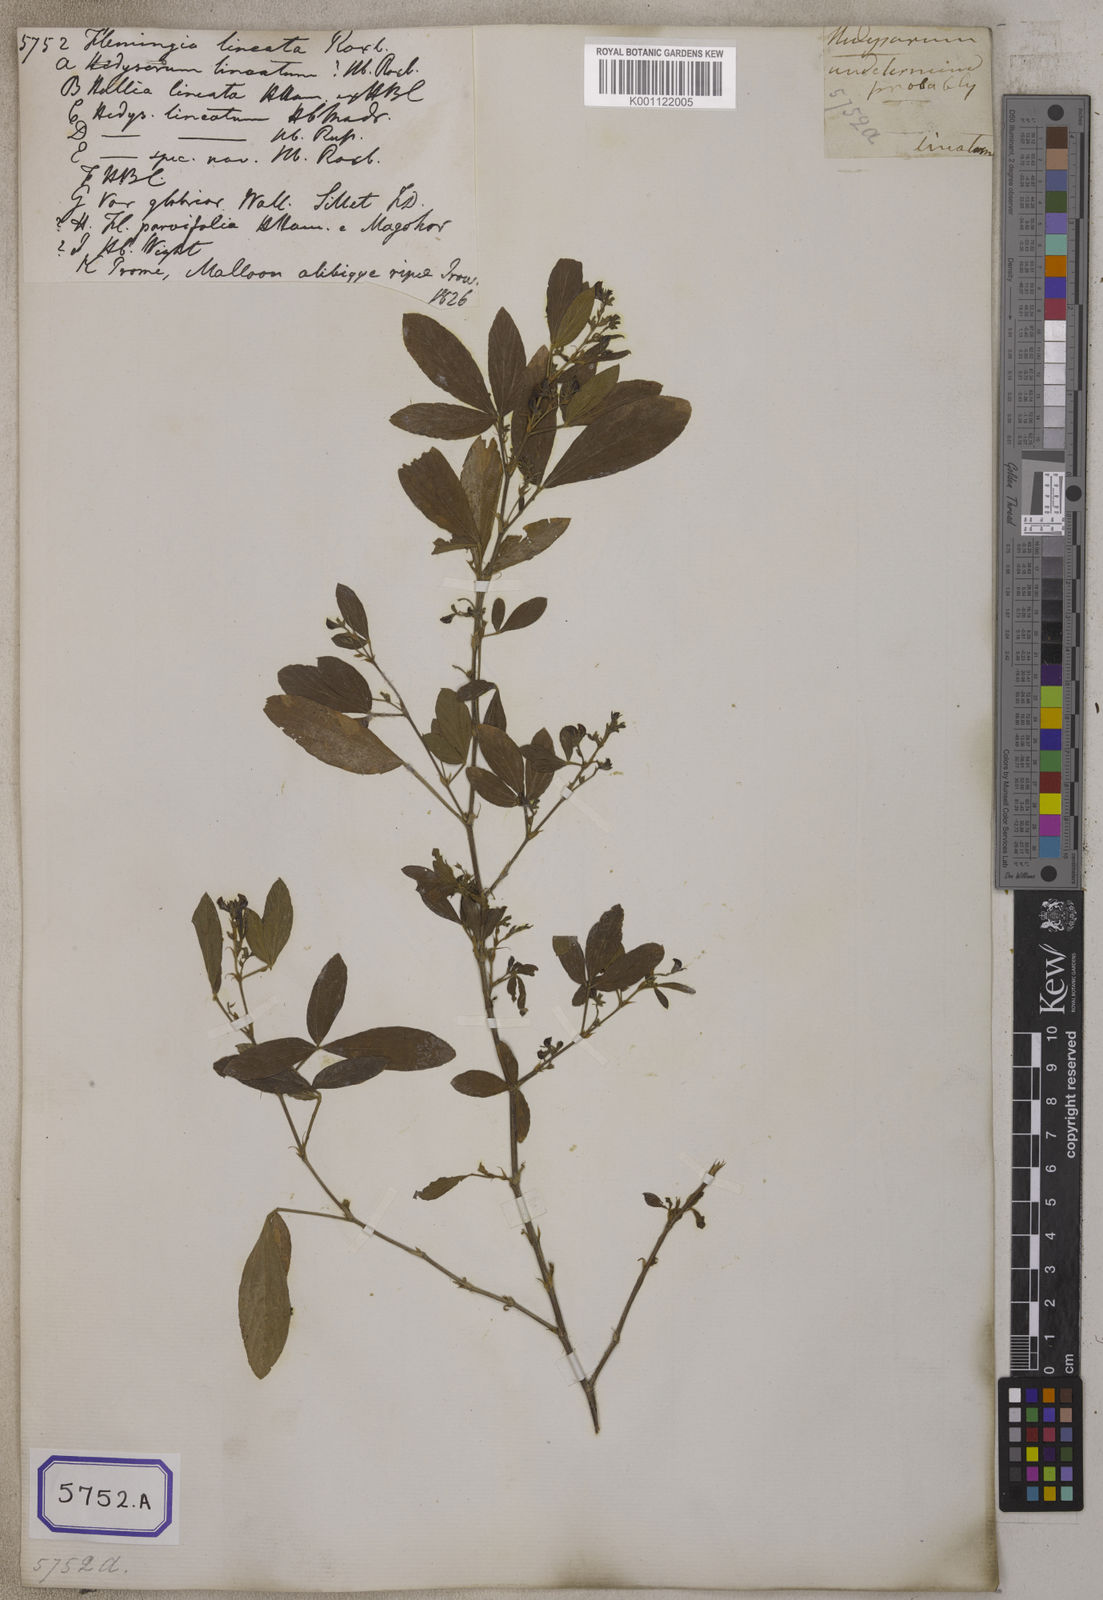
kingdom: Plantae
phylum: Tracheophyta
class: Magnoliopsida
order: Fabales
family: Fabaceae
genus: Flemingia
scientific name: Flemingia lineata
